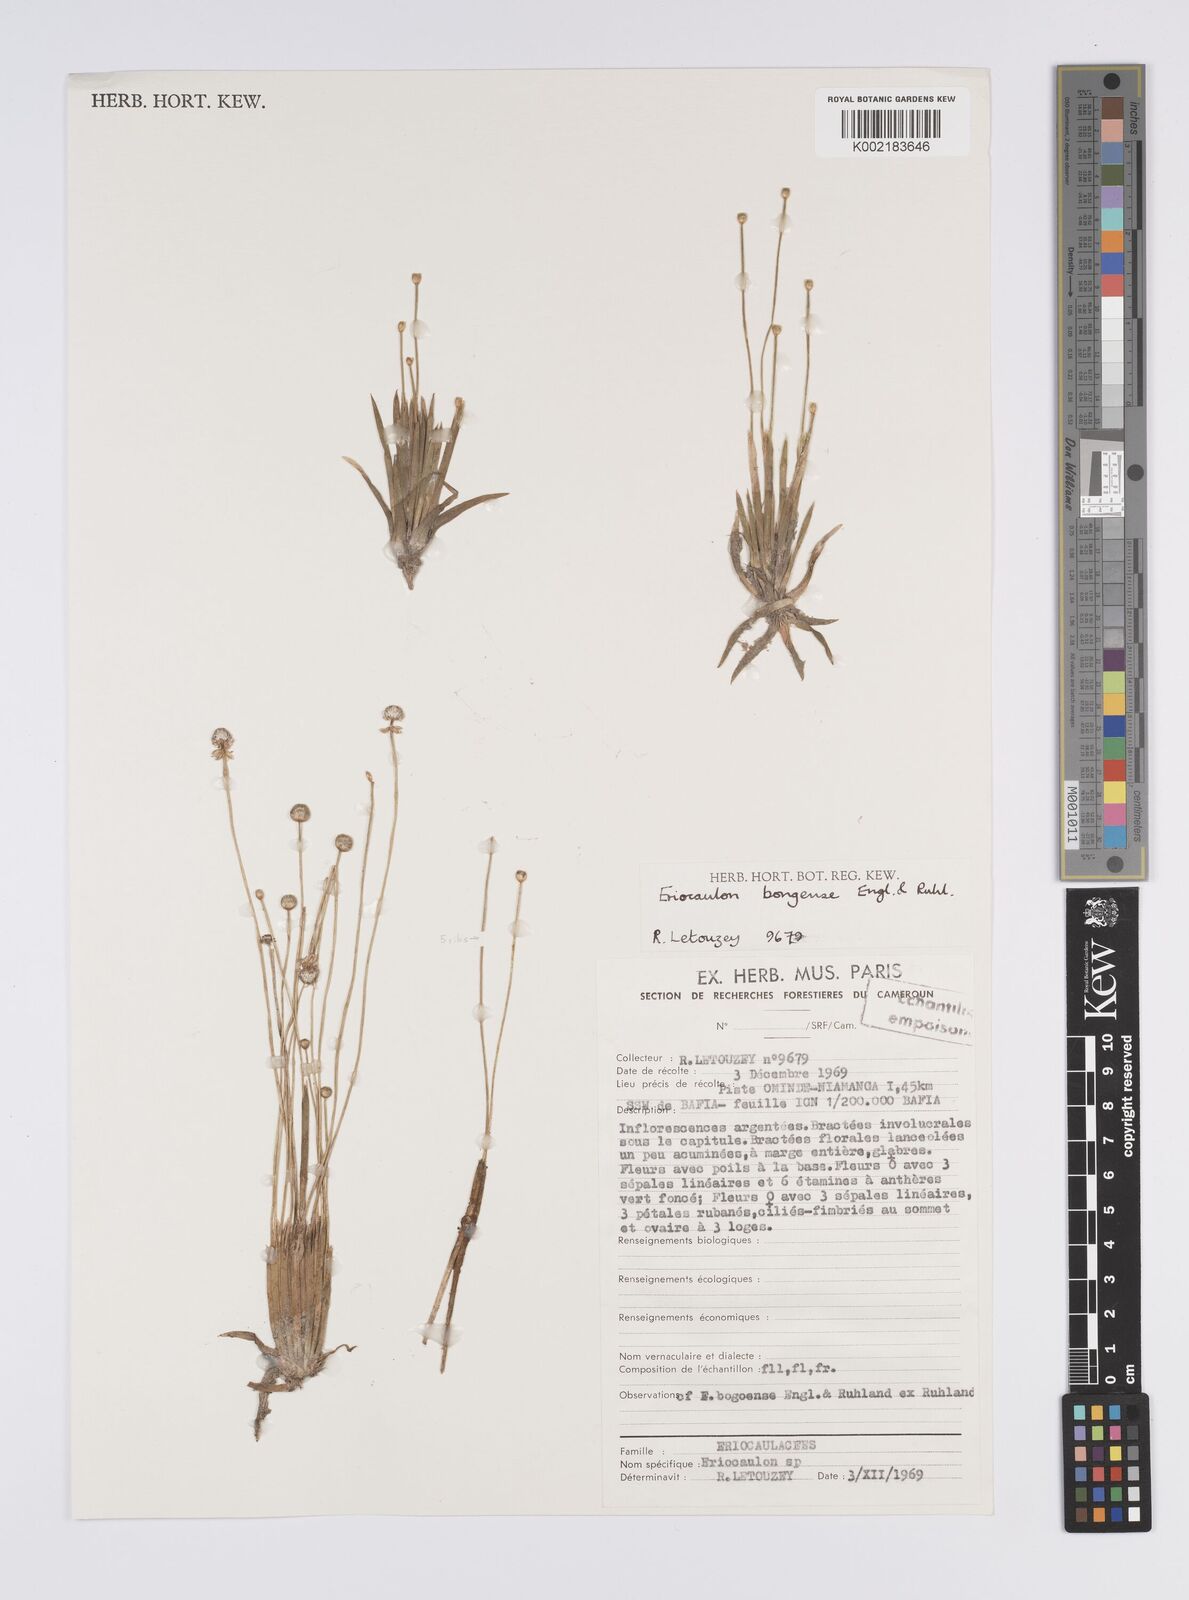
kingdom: Plantae
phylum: Tracheophyta
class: Liliopsida
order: Poales
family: Eriocaulaceae
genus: Eriocaulon
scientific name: Eriocaulon bongense
